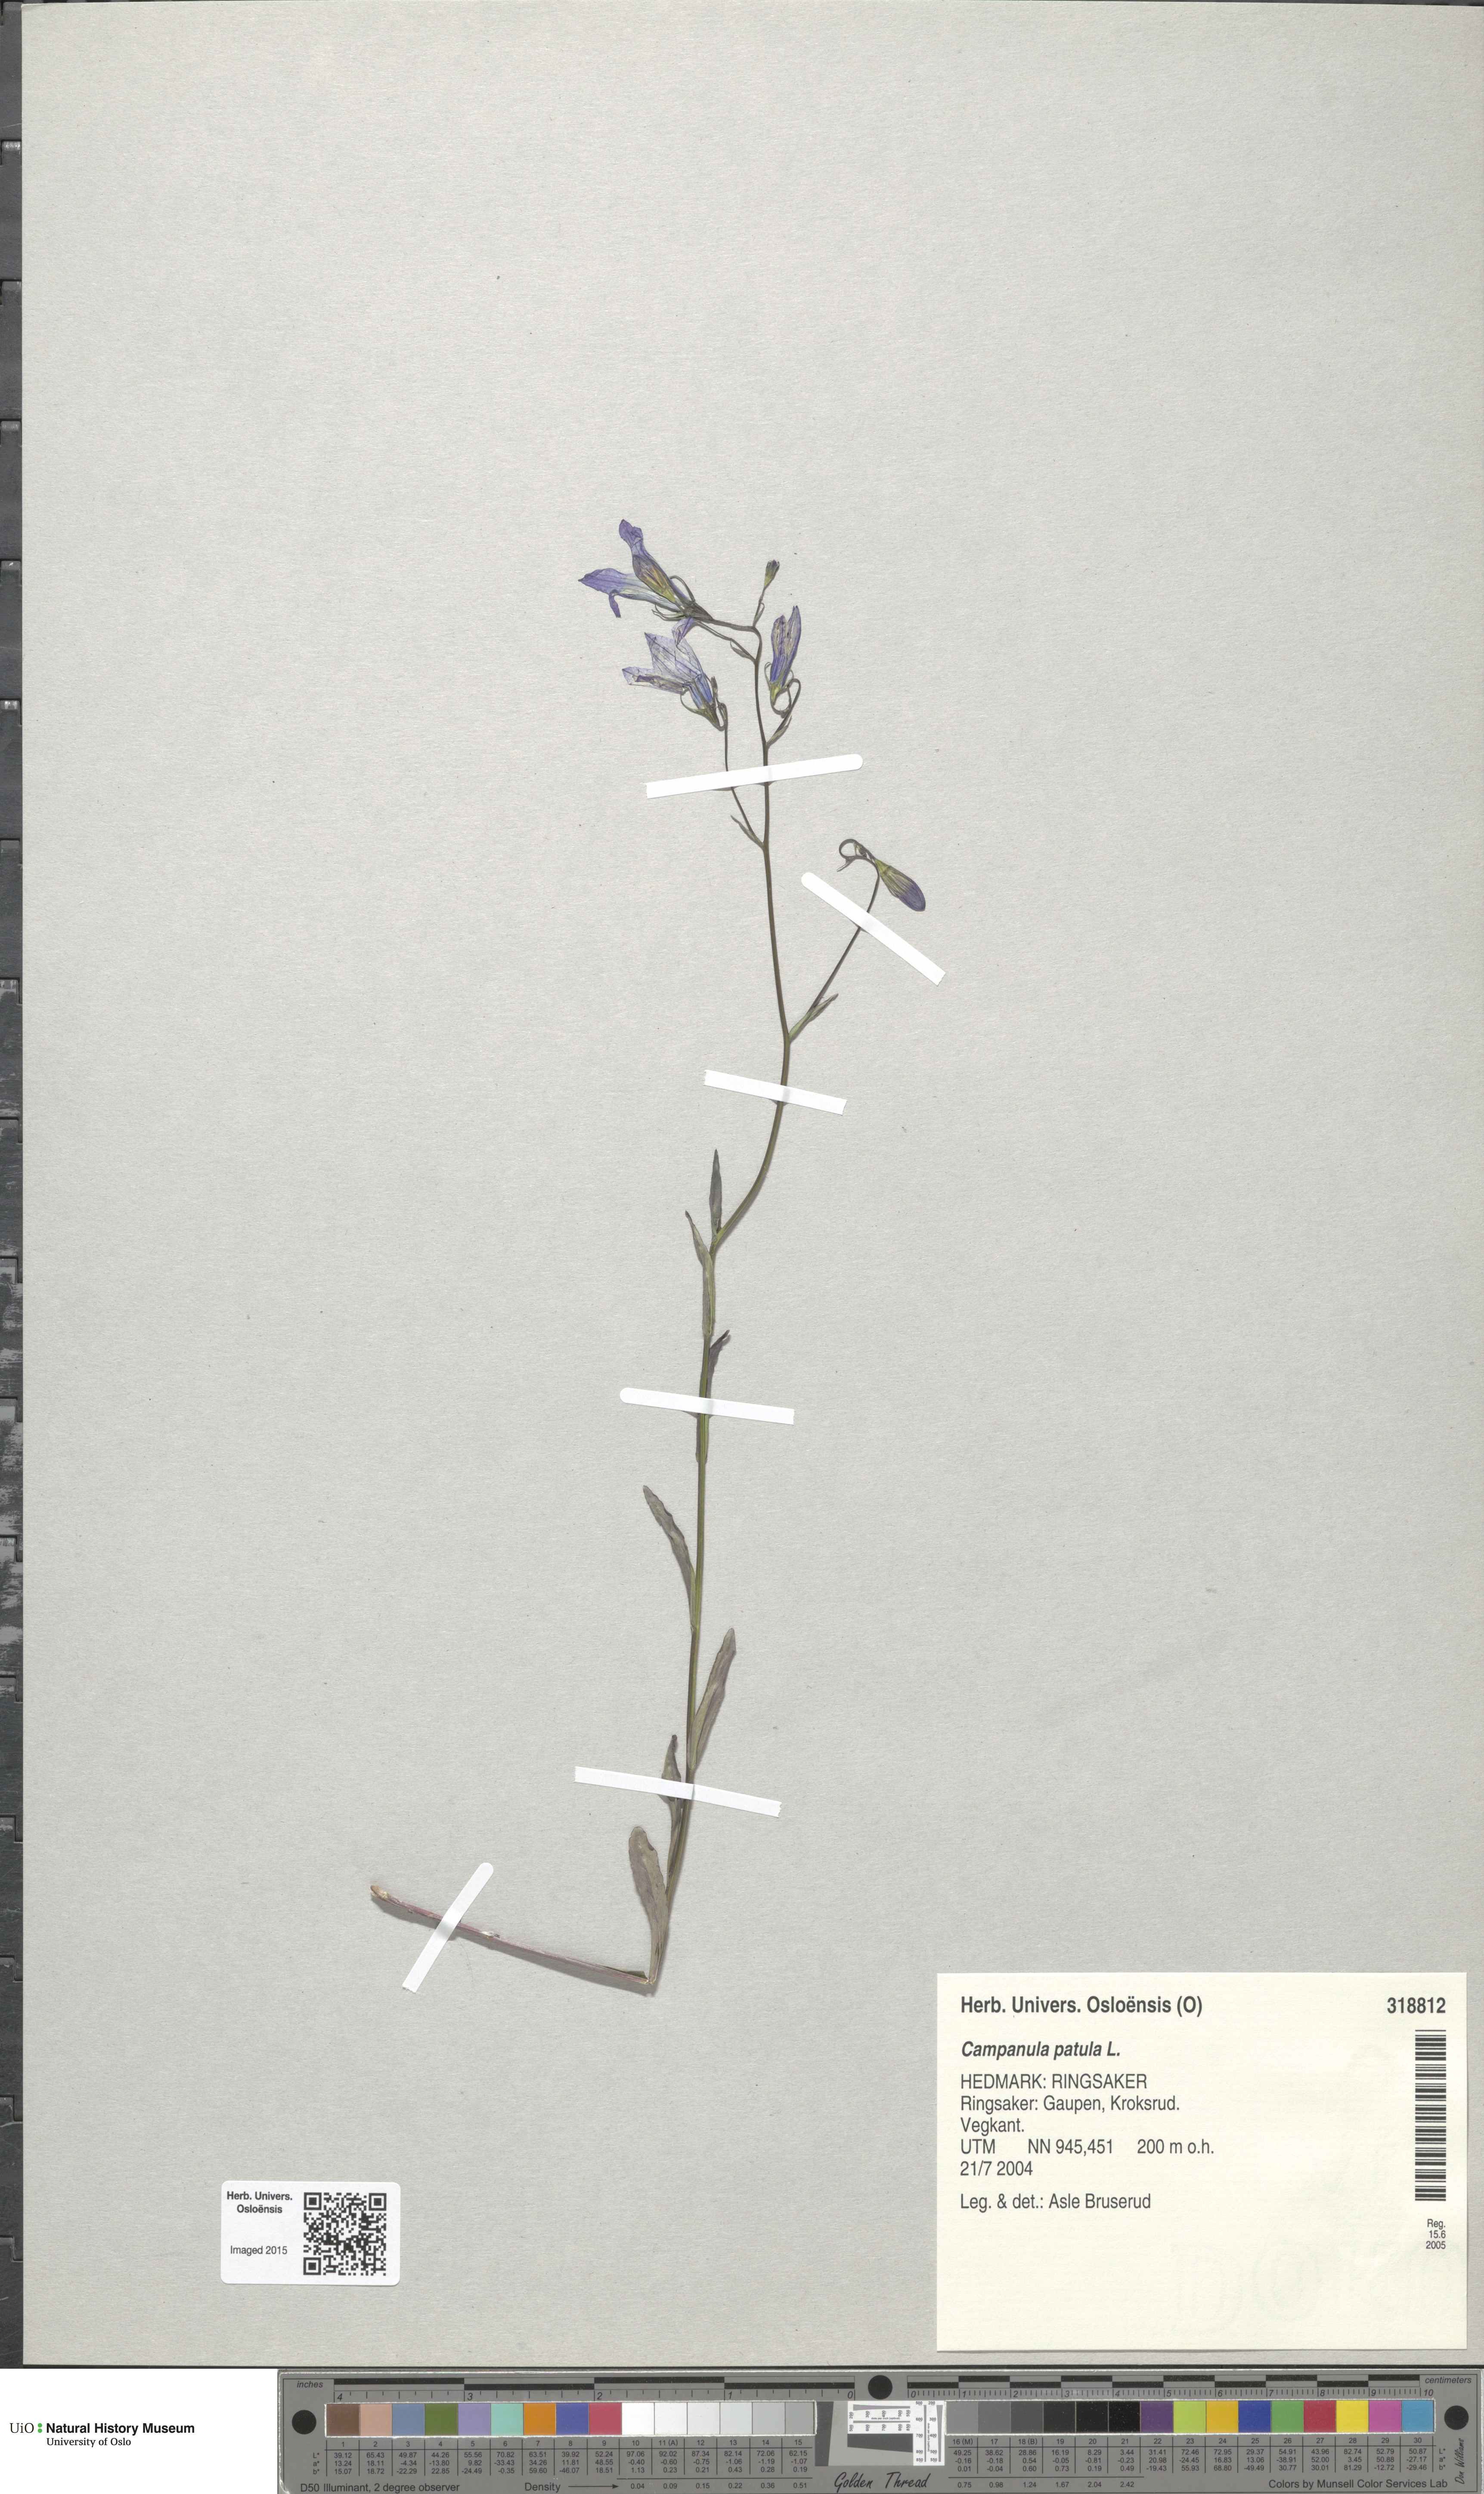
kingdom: Plantae
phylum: Tracheophyta
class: Magnoliopsida
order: Asterales
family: Campanulaceae
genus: Campanula
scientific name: Campanula patula
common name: Spreading bellflower
